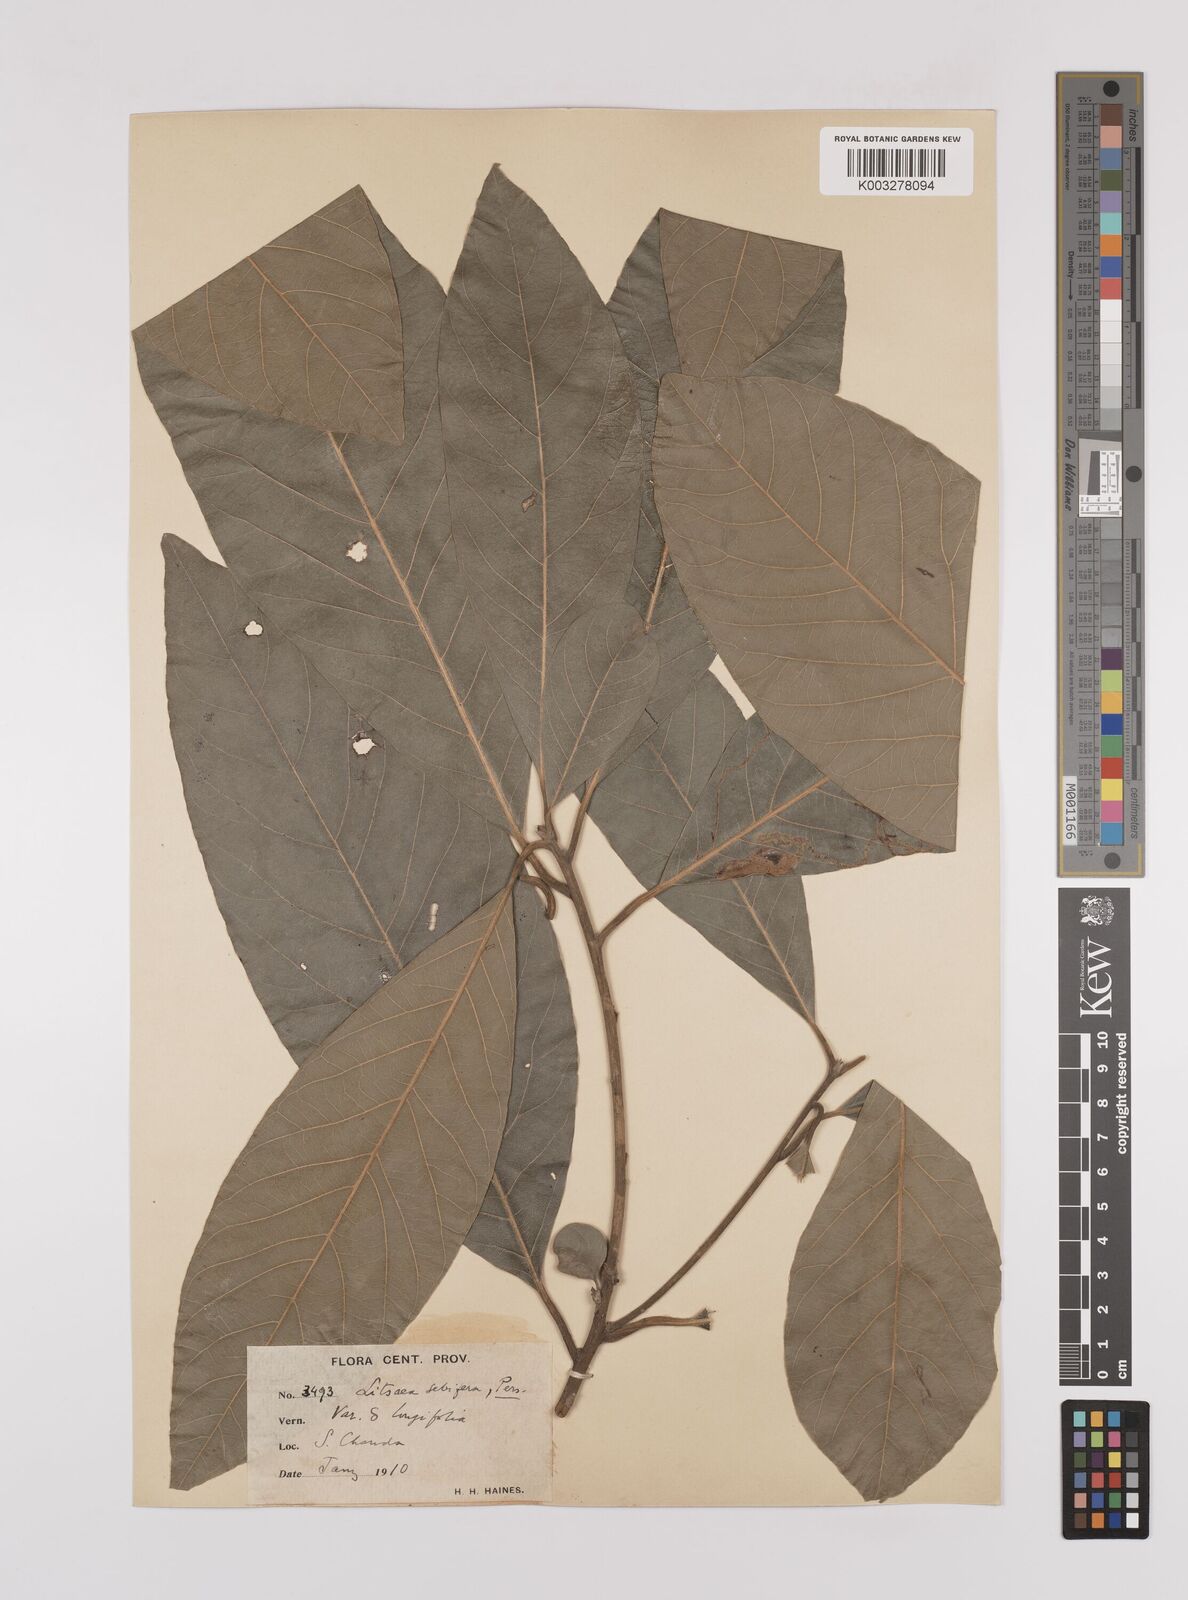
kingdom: Plantae
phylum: Tracheophyta
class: Magnoliopsida
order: Laurales
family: Lauraceae
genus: Litsea
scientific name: Litsea
